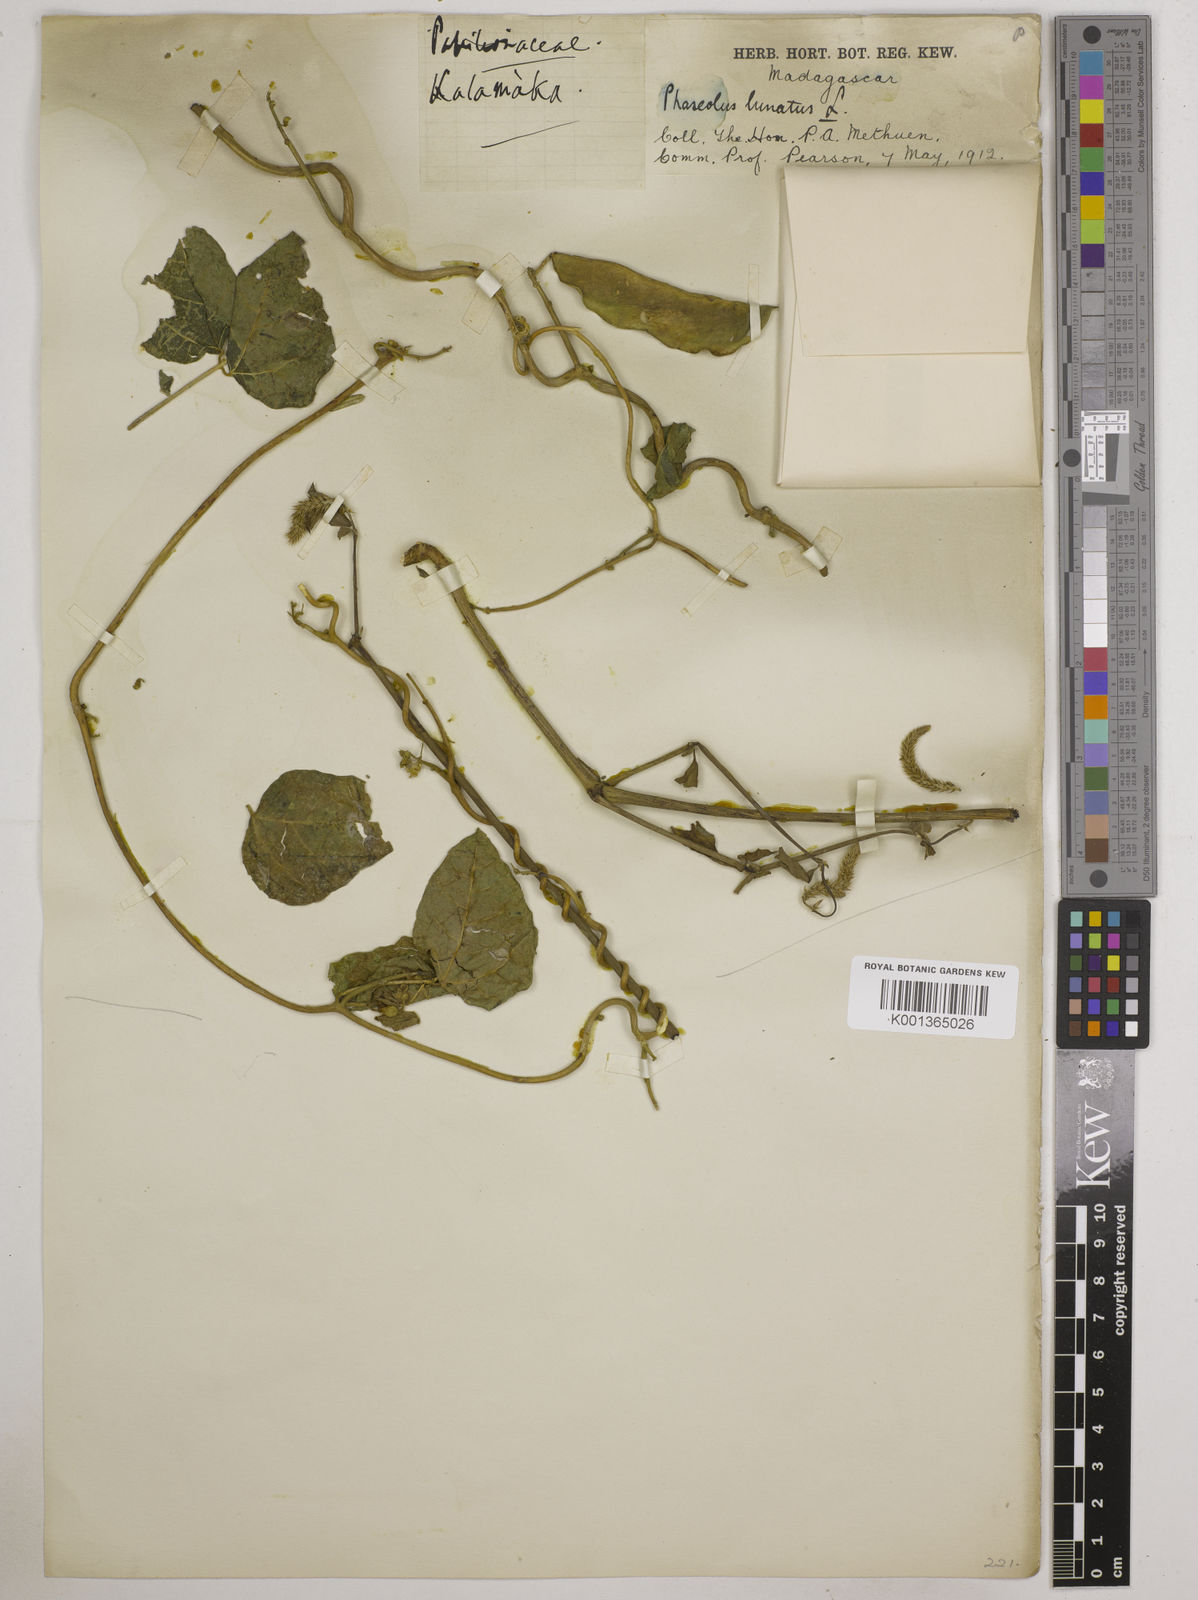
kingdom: Plantae
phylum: Tracheophyta
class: Magnoliopsida
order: Fabales
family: Fabaceae
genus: Phaseolus
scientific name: Phaseolus lunatus
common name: Sieva bean
